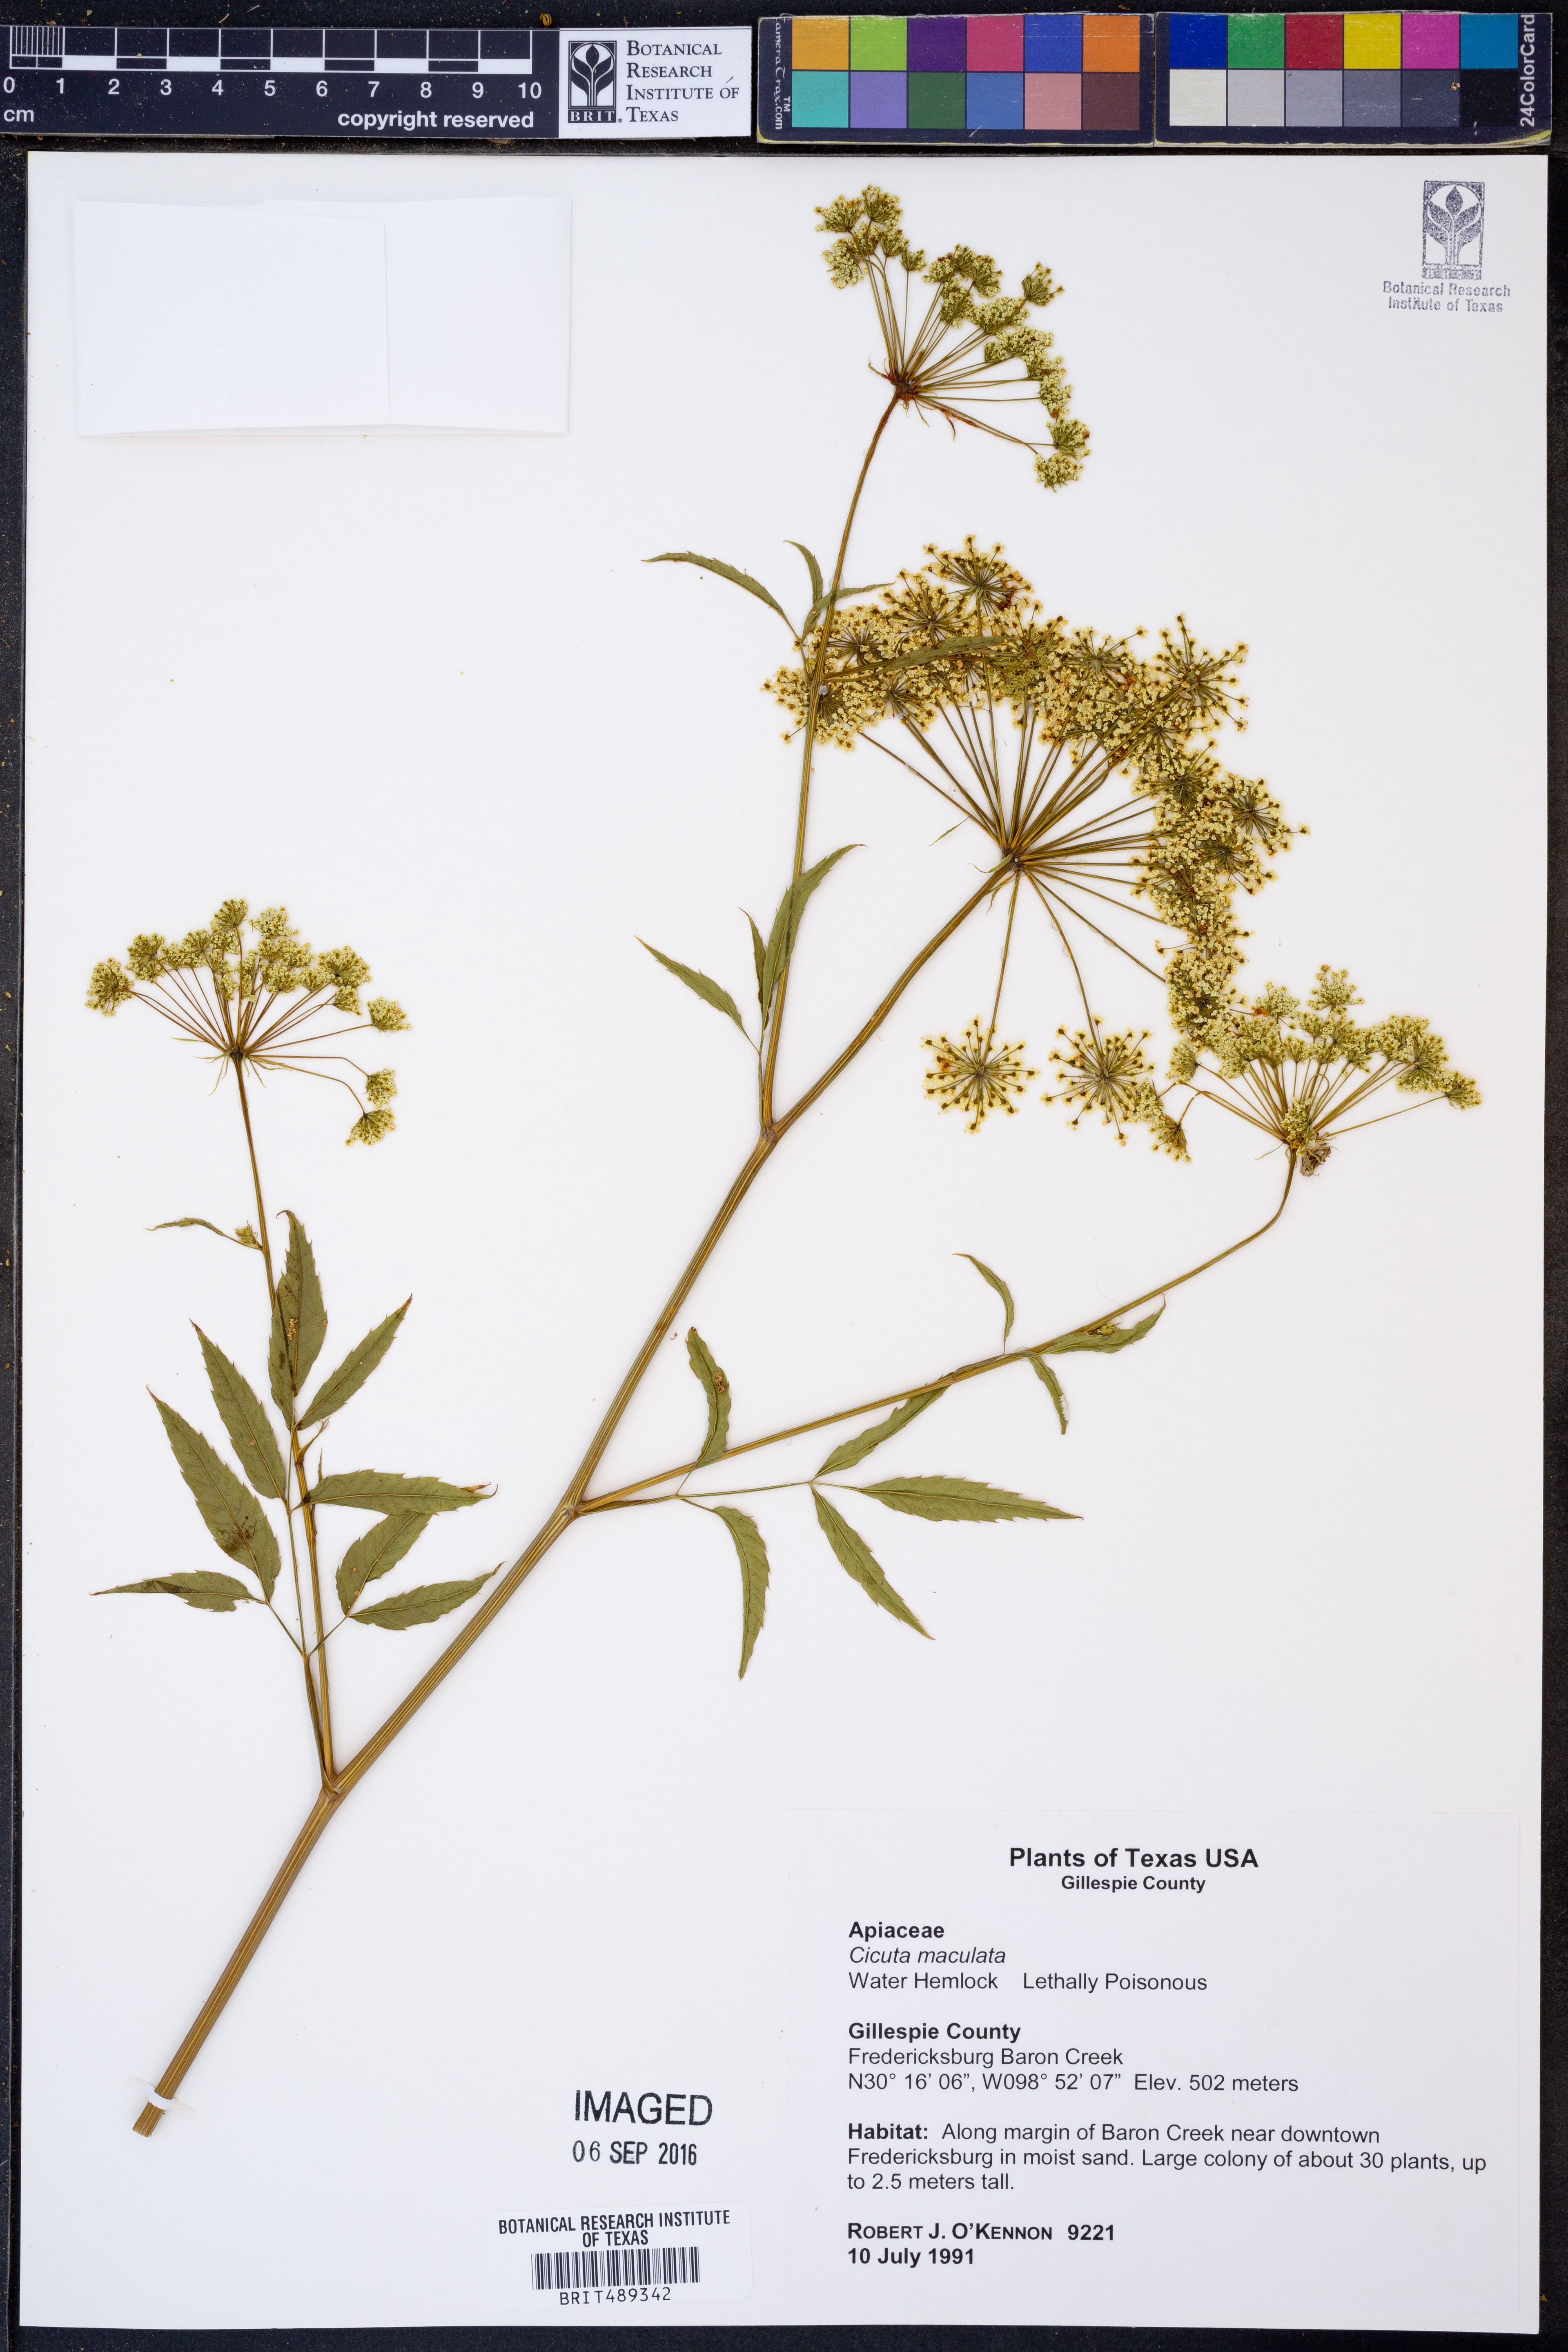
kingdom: Plantae
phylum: Tracheophyta
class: Magnoliopsida
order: Apiales
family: Apiaceae
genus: Cicuta
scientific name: Cicuta maculata
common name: Spotted cowbane
